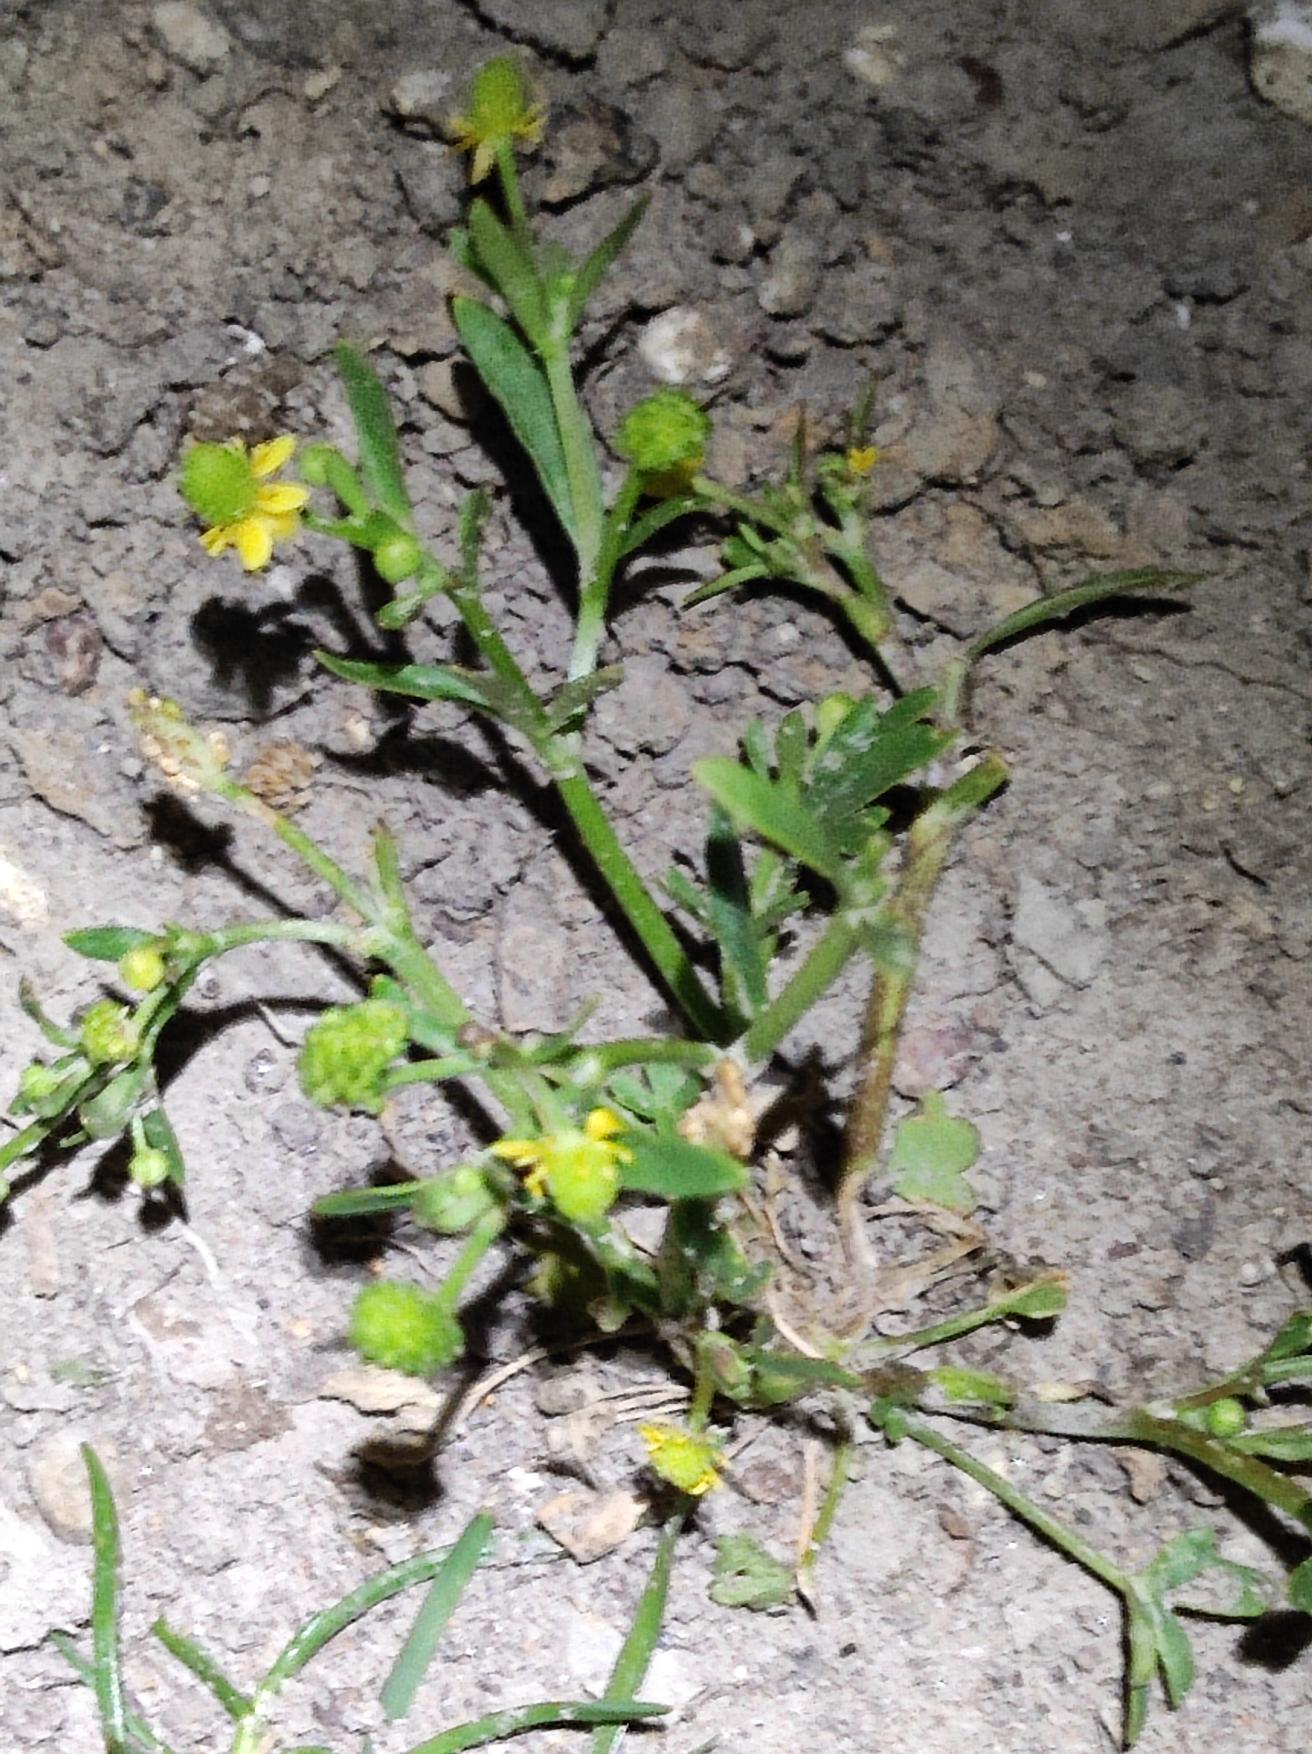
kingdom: Plantae
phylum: Tracheophyta
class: Magnoliopsida
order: Ranunculales
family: Ranunculaceae
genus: Ranunculus
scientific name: Ranunculus sceleratus
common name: Tigger-ranunkel
